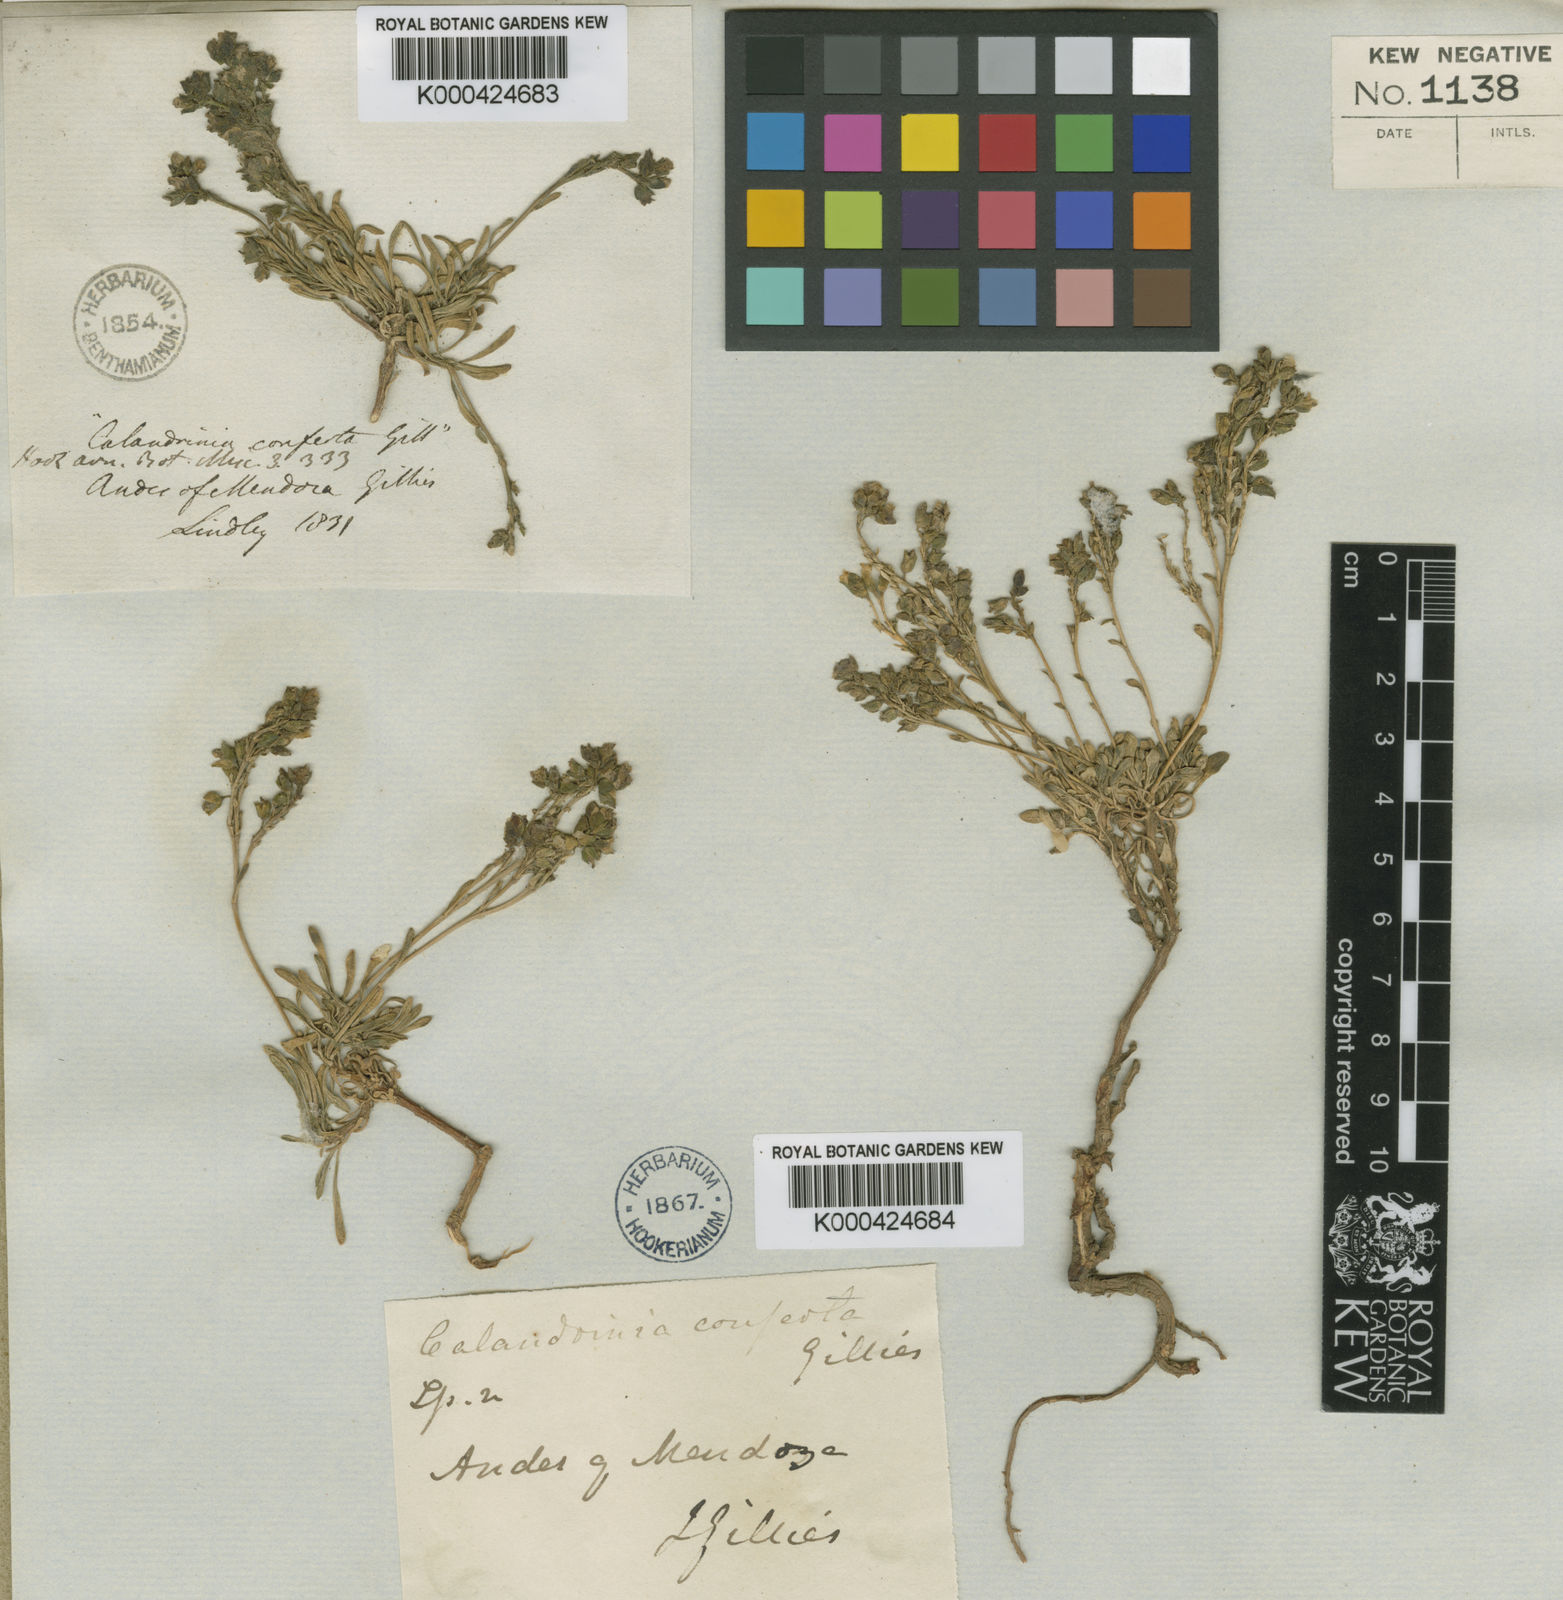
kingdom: Plantae
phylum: Tracheophyta
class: Magnoliopsida
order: Caryophyllales
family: Montiaceae
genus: Montiopsis
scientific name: Montiopsis conferta
